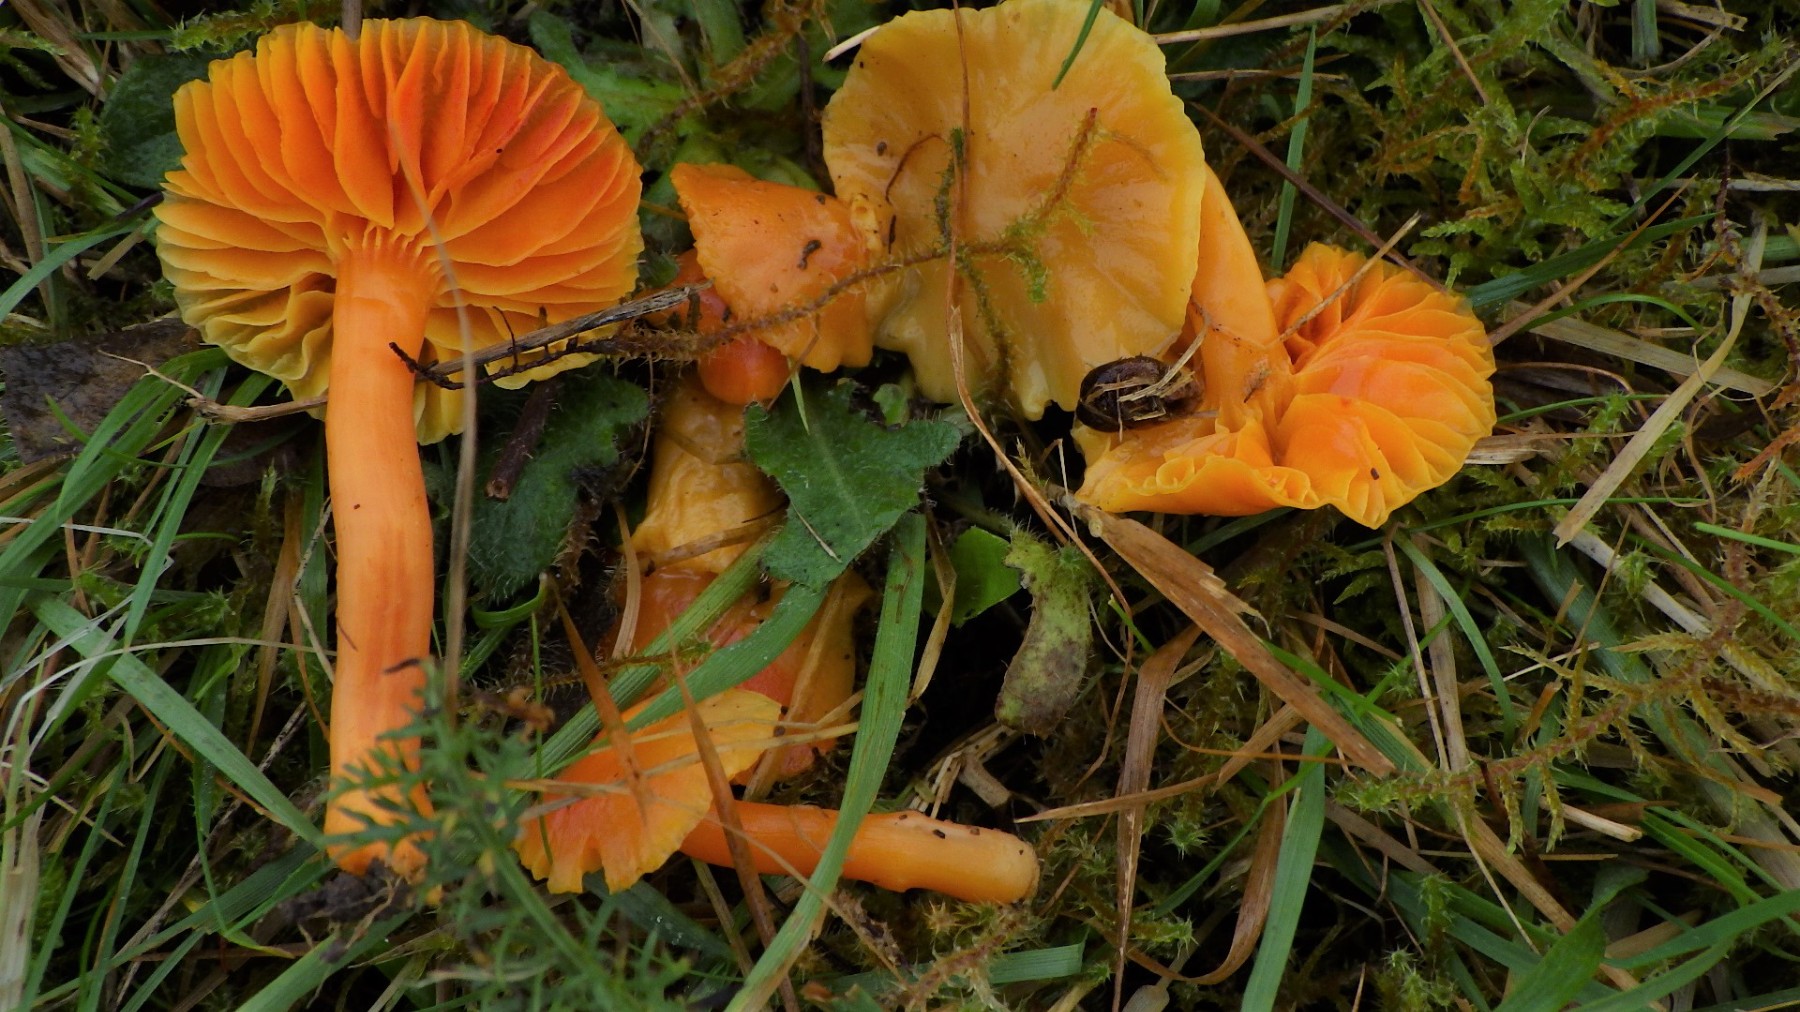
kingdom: Fungi
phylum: Basidiomycota
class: Agaricomycetes
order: Agaricales
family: Hygrophoraceae
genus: Hygrocybe
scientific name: Hygrocybe quieta
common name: tæge-vokshat
